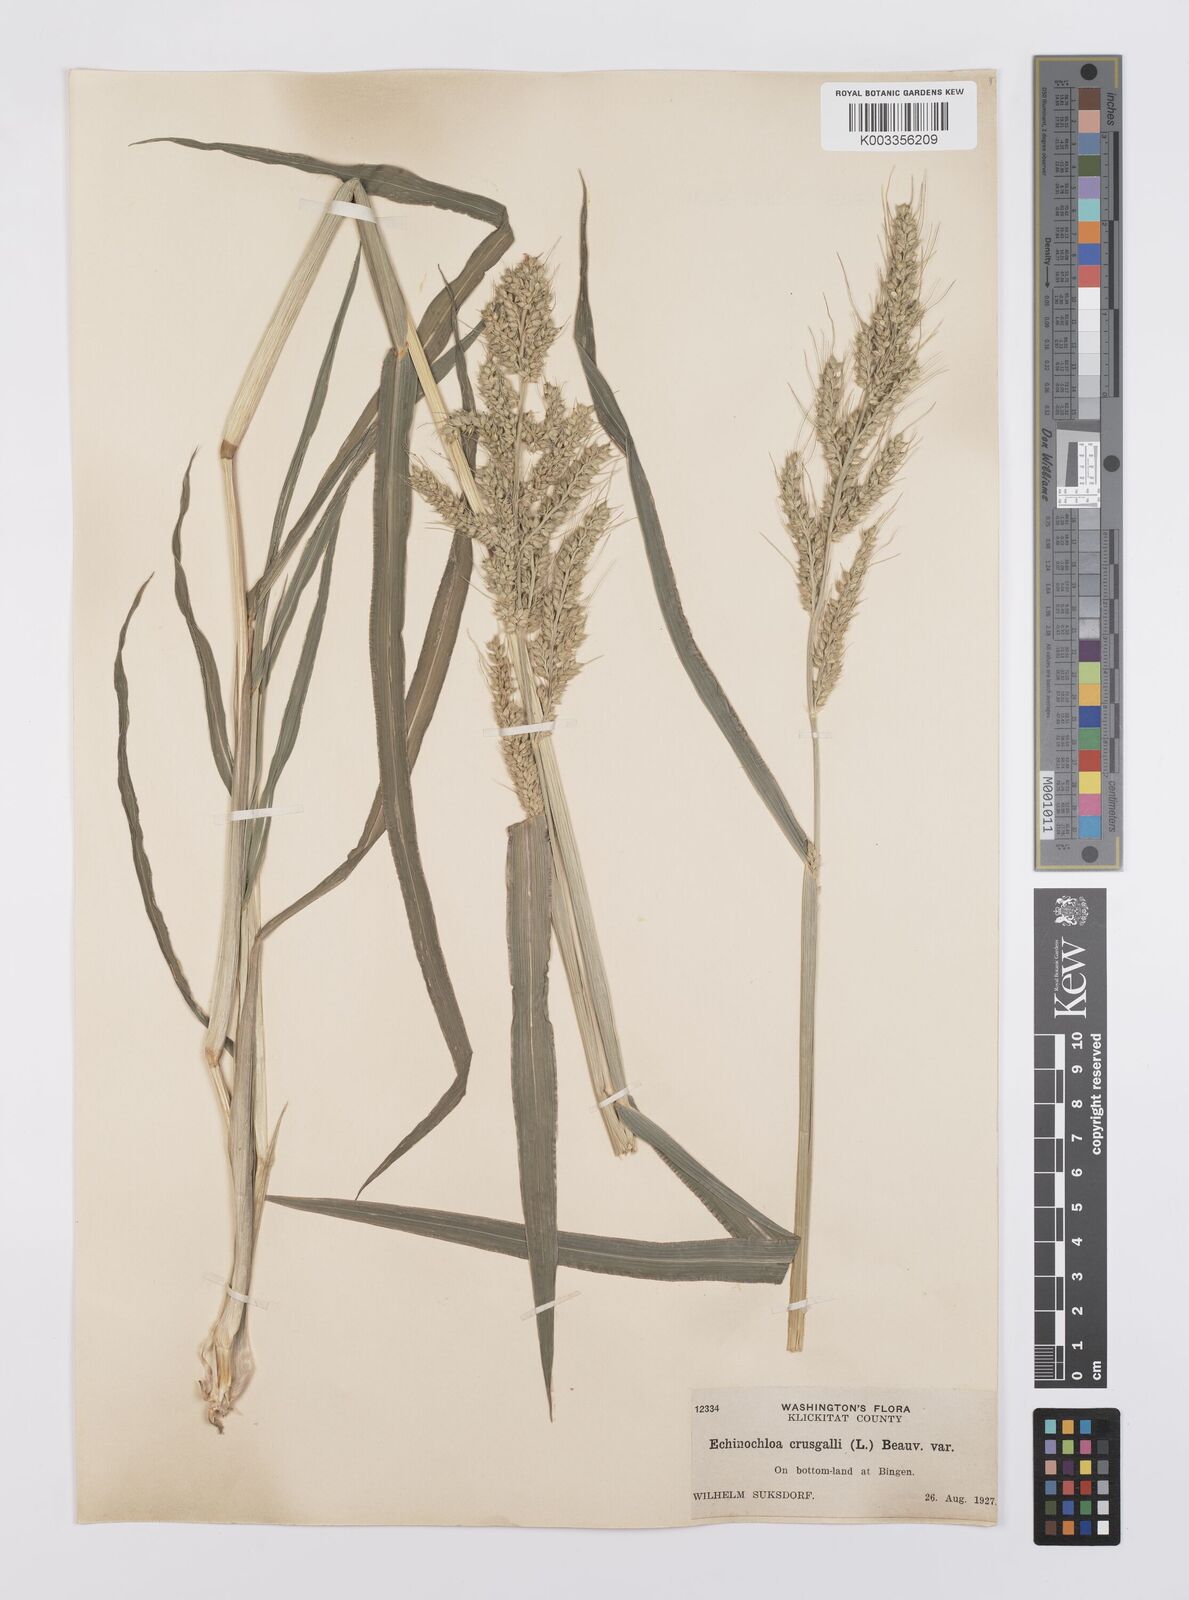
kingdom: Plantae
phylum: Tracheophyta
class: Liliopsida
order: Poales
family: Poaceae
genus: Echinochloa
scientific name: Echinochloa crus-galli
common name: Cockspur
